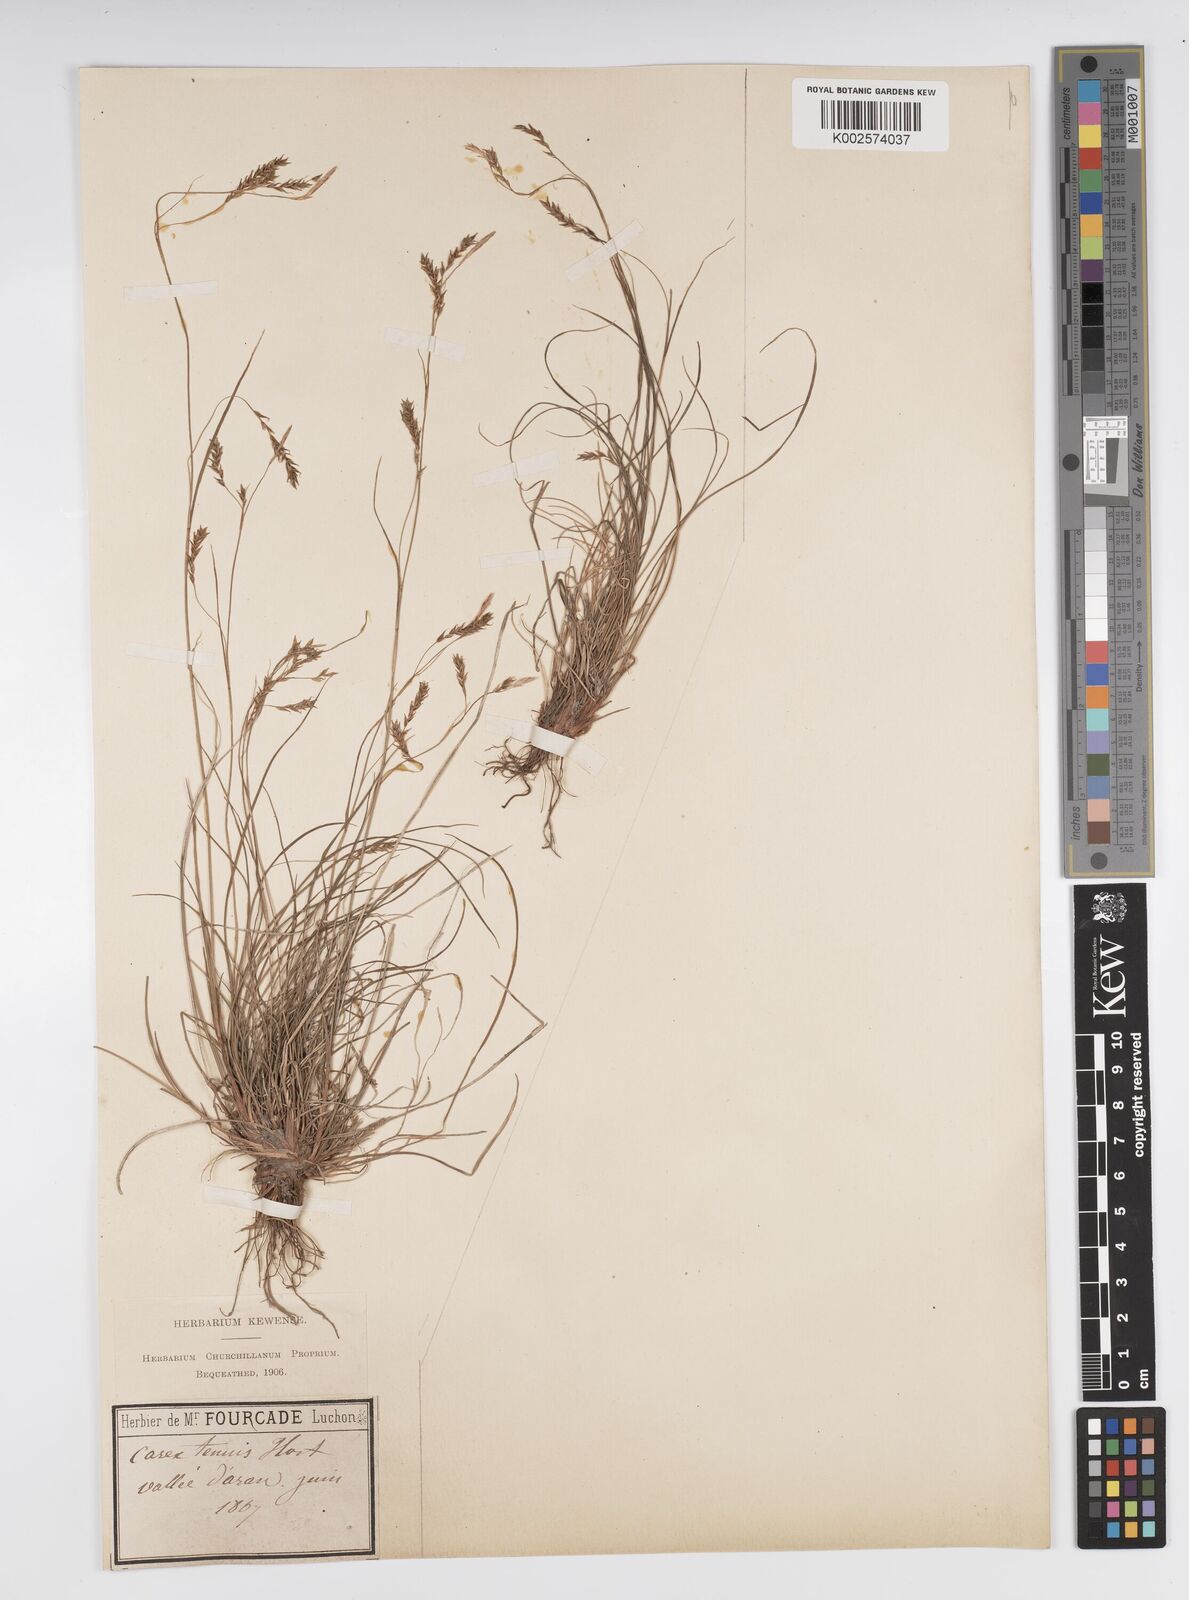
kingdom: Plantae
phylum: Tracheophyta
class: Liliopsida
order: Poales
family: Cyperaceae
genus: Carex
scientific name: Carex brachystachys
